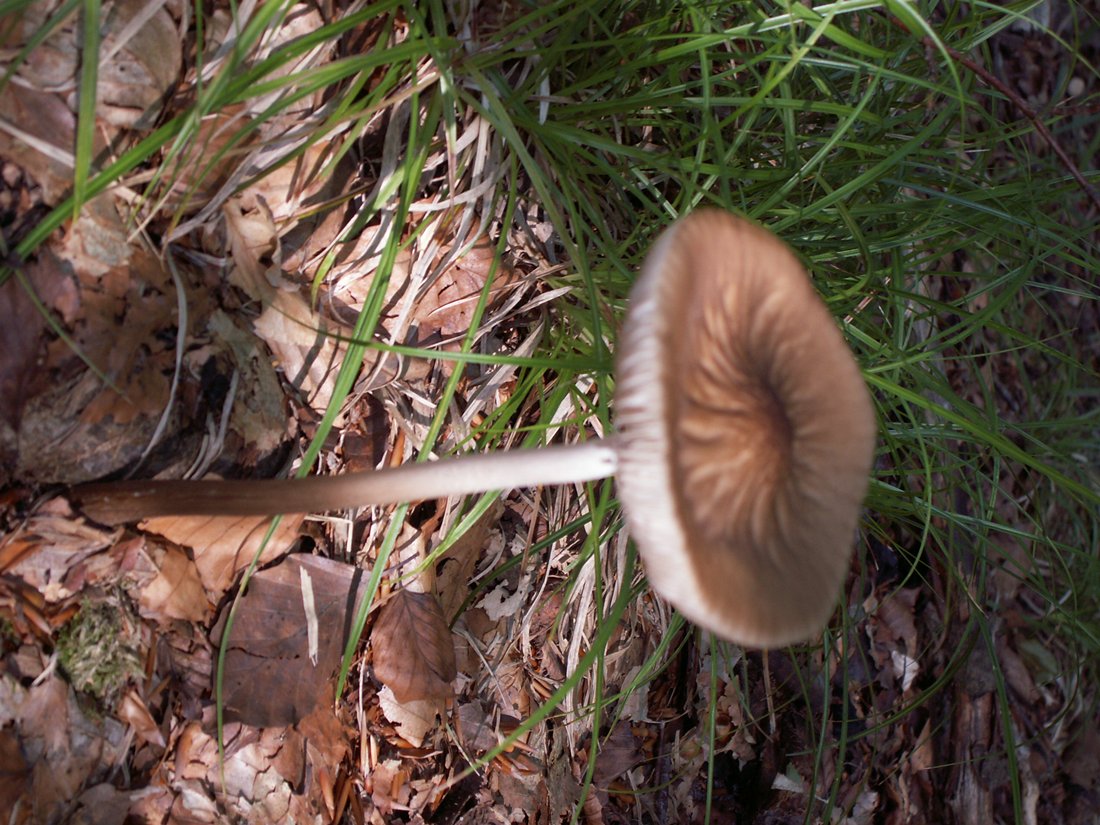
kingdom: Fungi
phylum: Basidiomycota
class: Agaricomycetes
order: Agaricales
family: Physalacriaceae
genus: Hymenopellis
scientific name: Hymenopellis radicata
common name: almindelig pælerodshat
